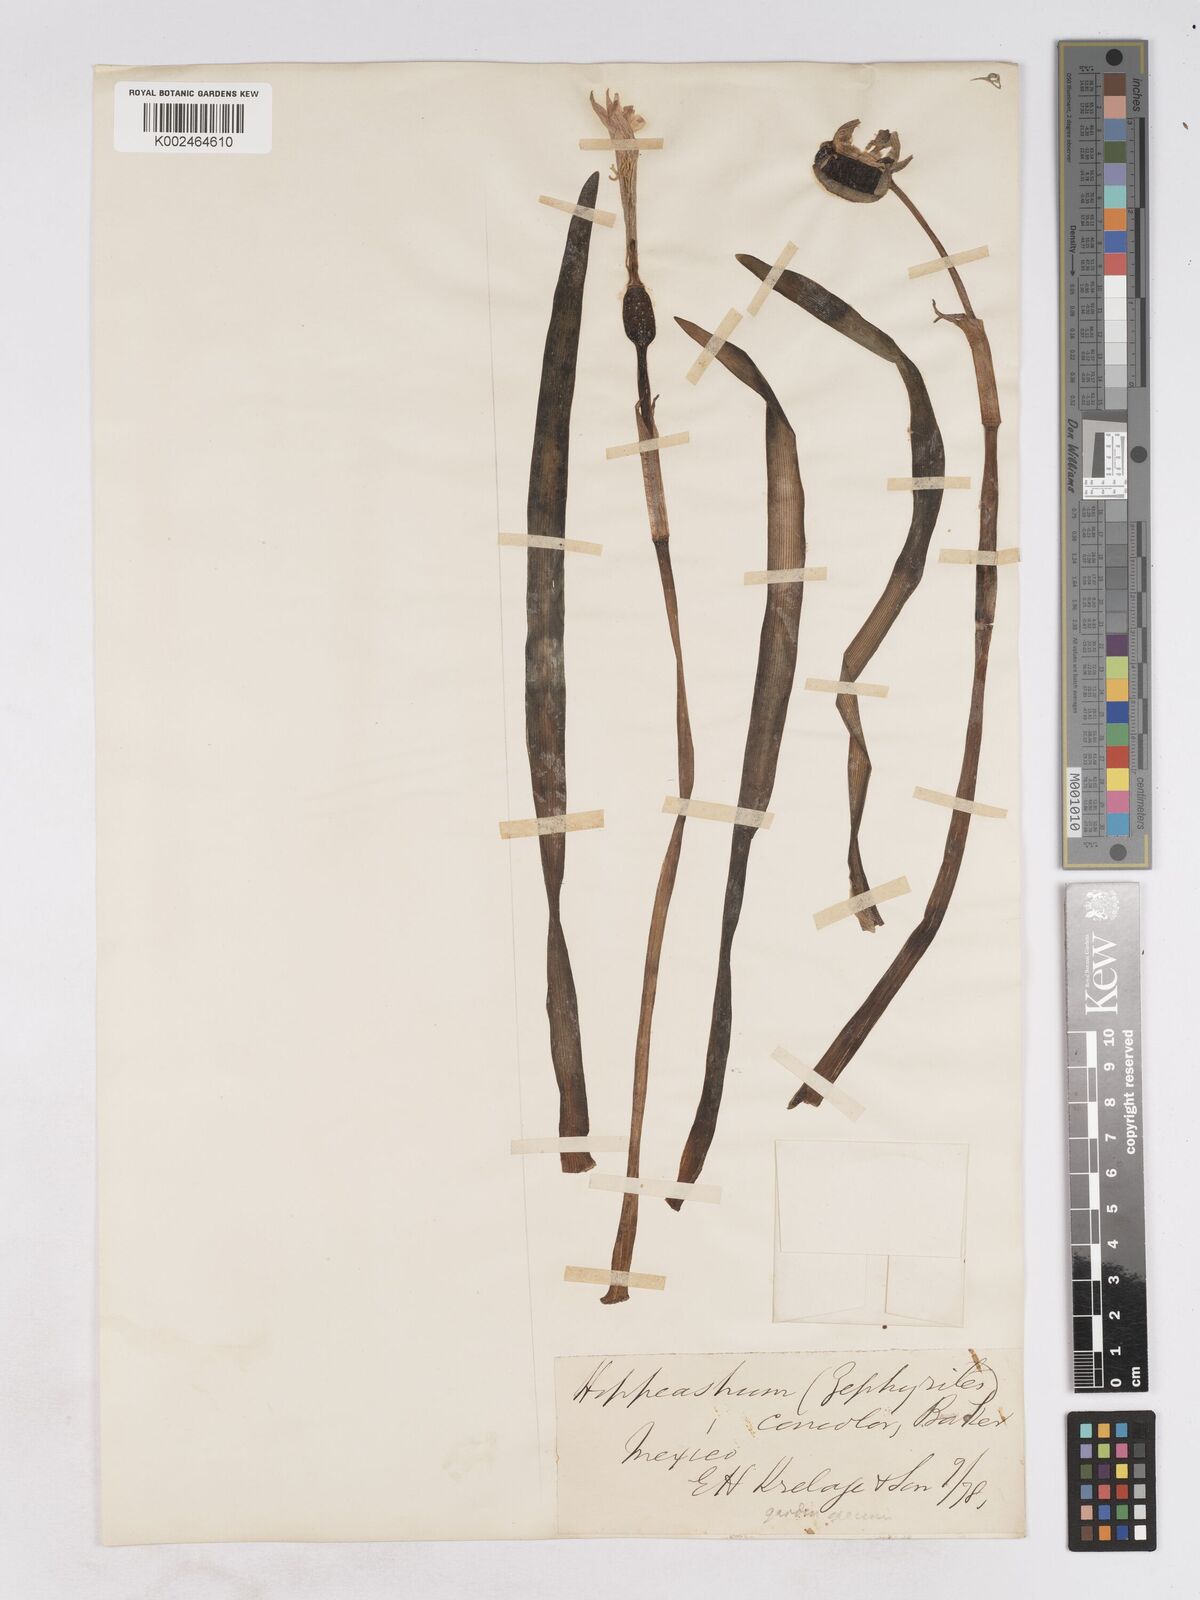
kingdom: Plantae
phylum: Tracheophyta
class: Liliopsida
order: Asparagales
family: Amaryllidaceae
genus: Zephyranthes
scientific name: Zephyranthes concolor
